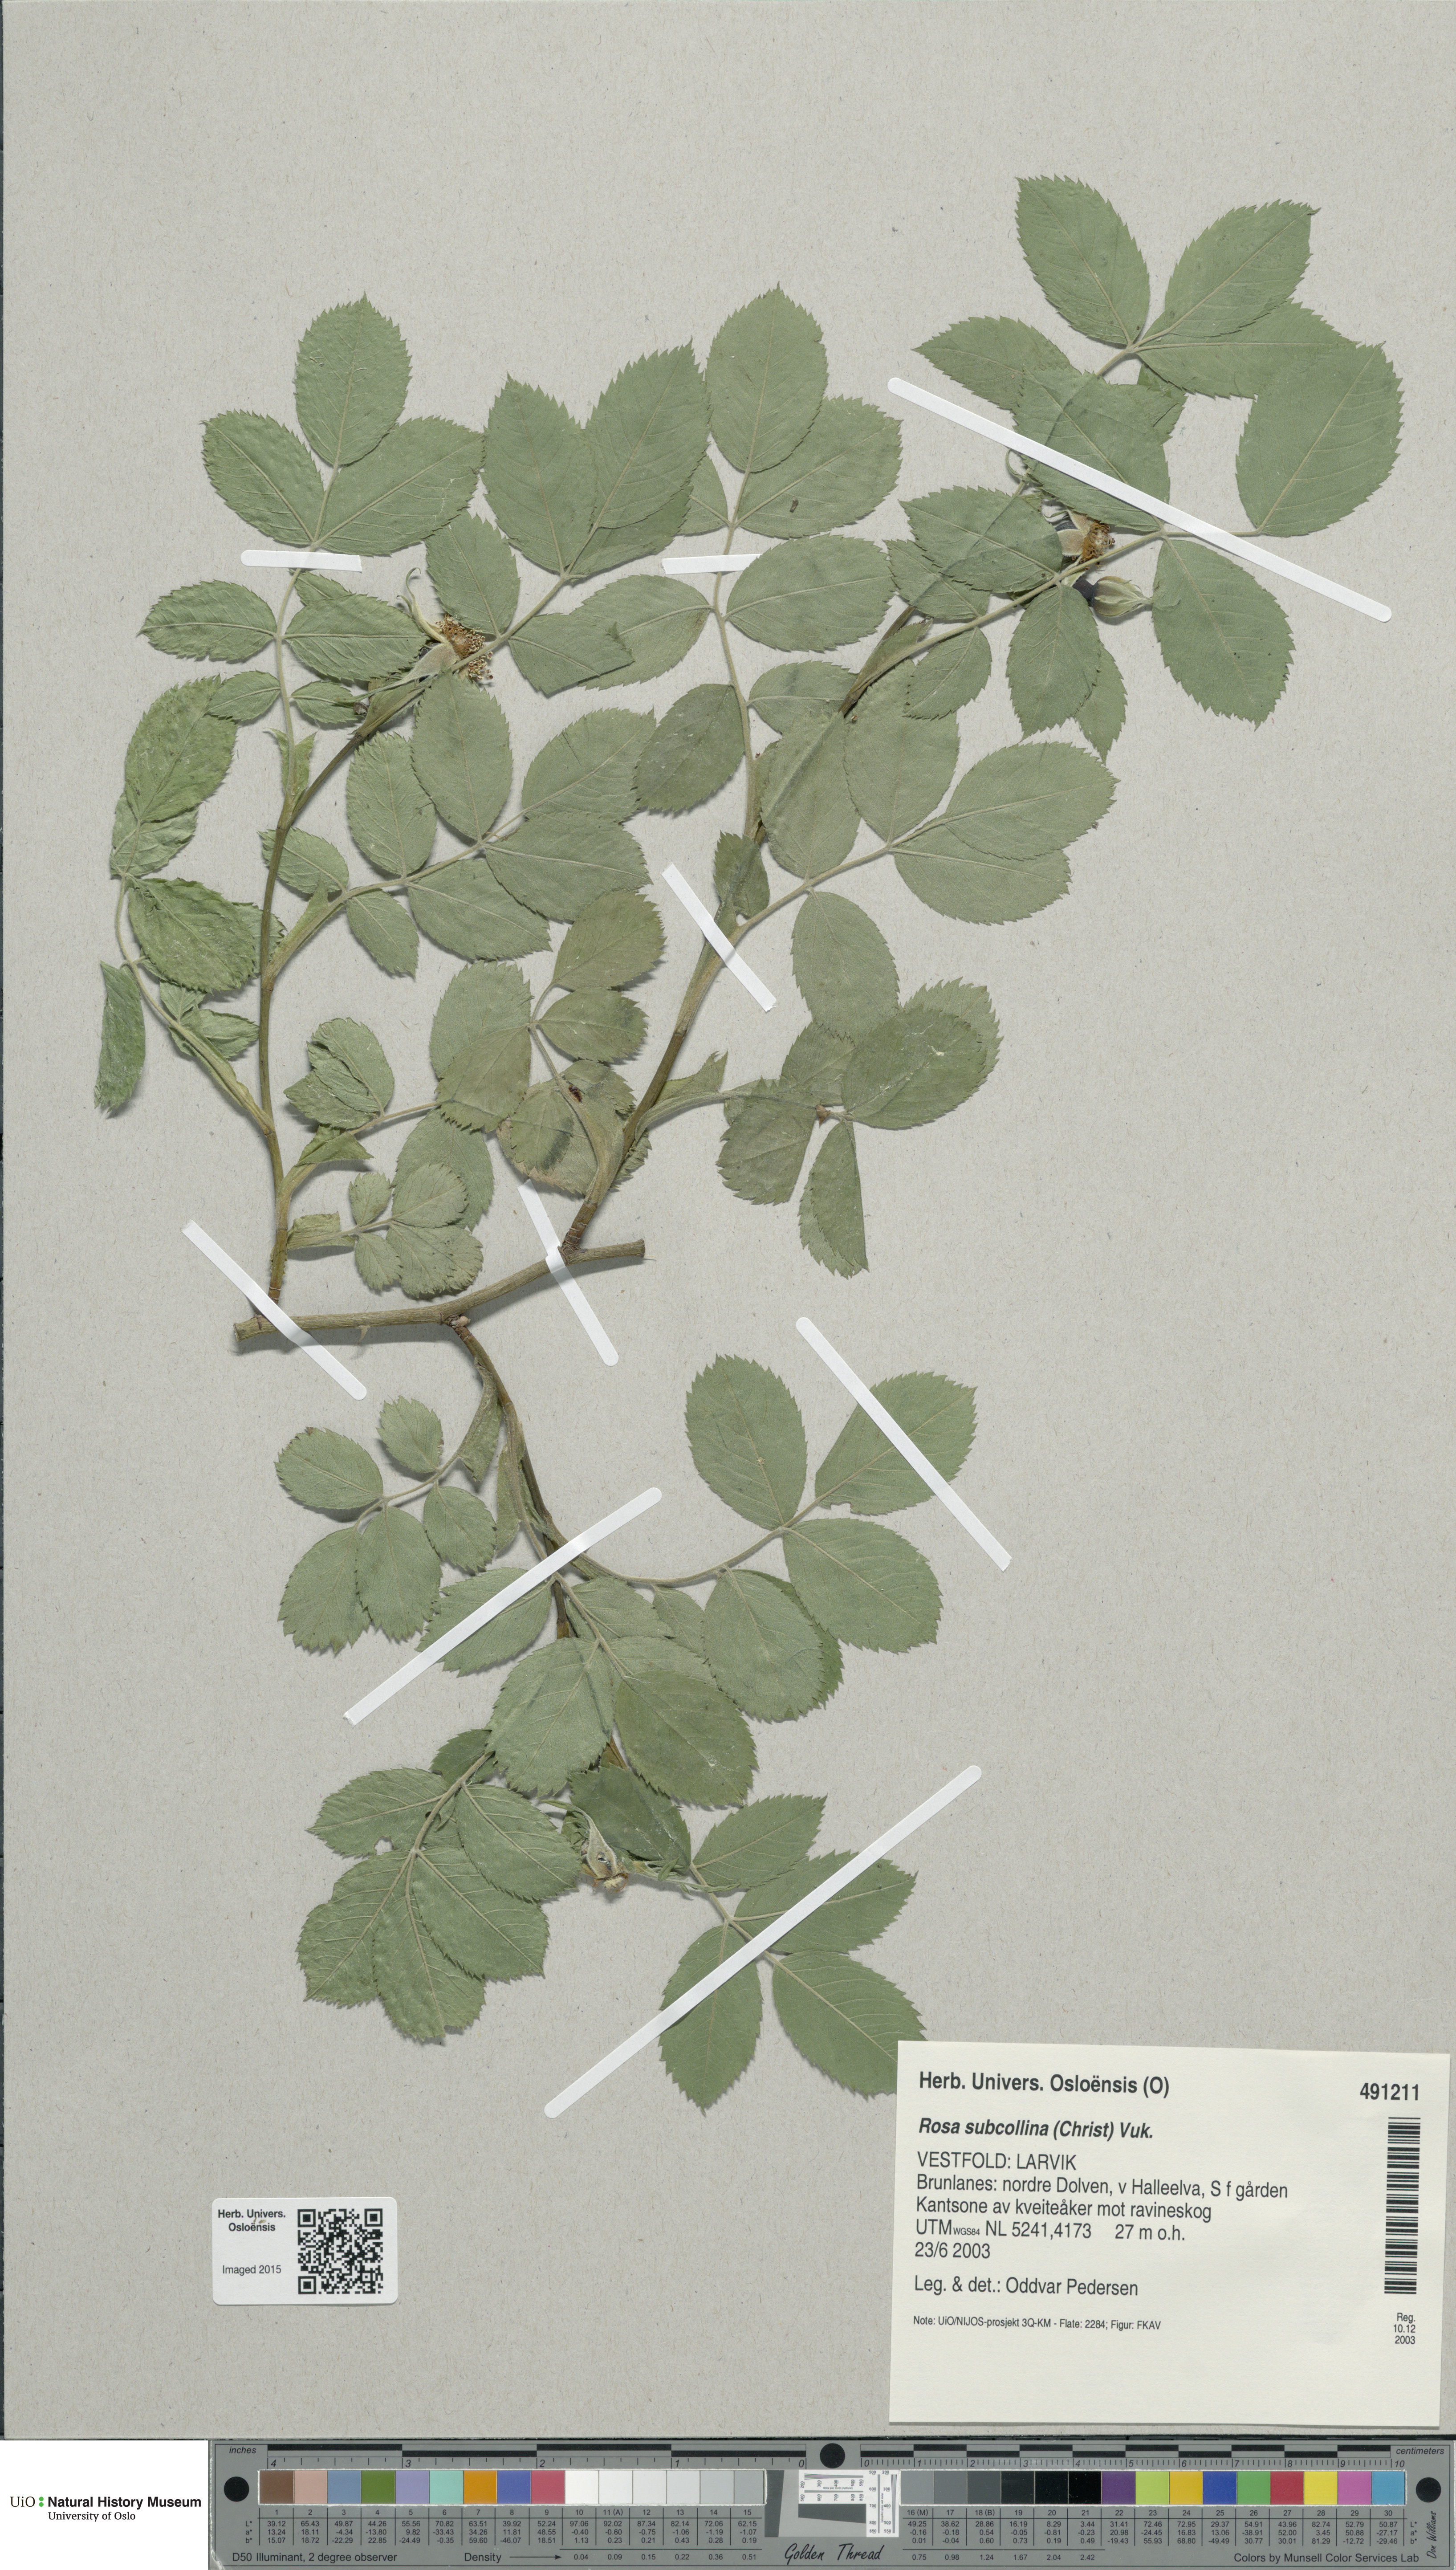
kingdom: Plantae
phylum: Tracheophyta
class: Magnoliopsida
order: Rosales
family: Rosaceae
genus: Rosa
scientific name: Rosa subcollina
